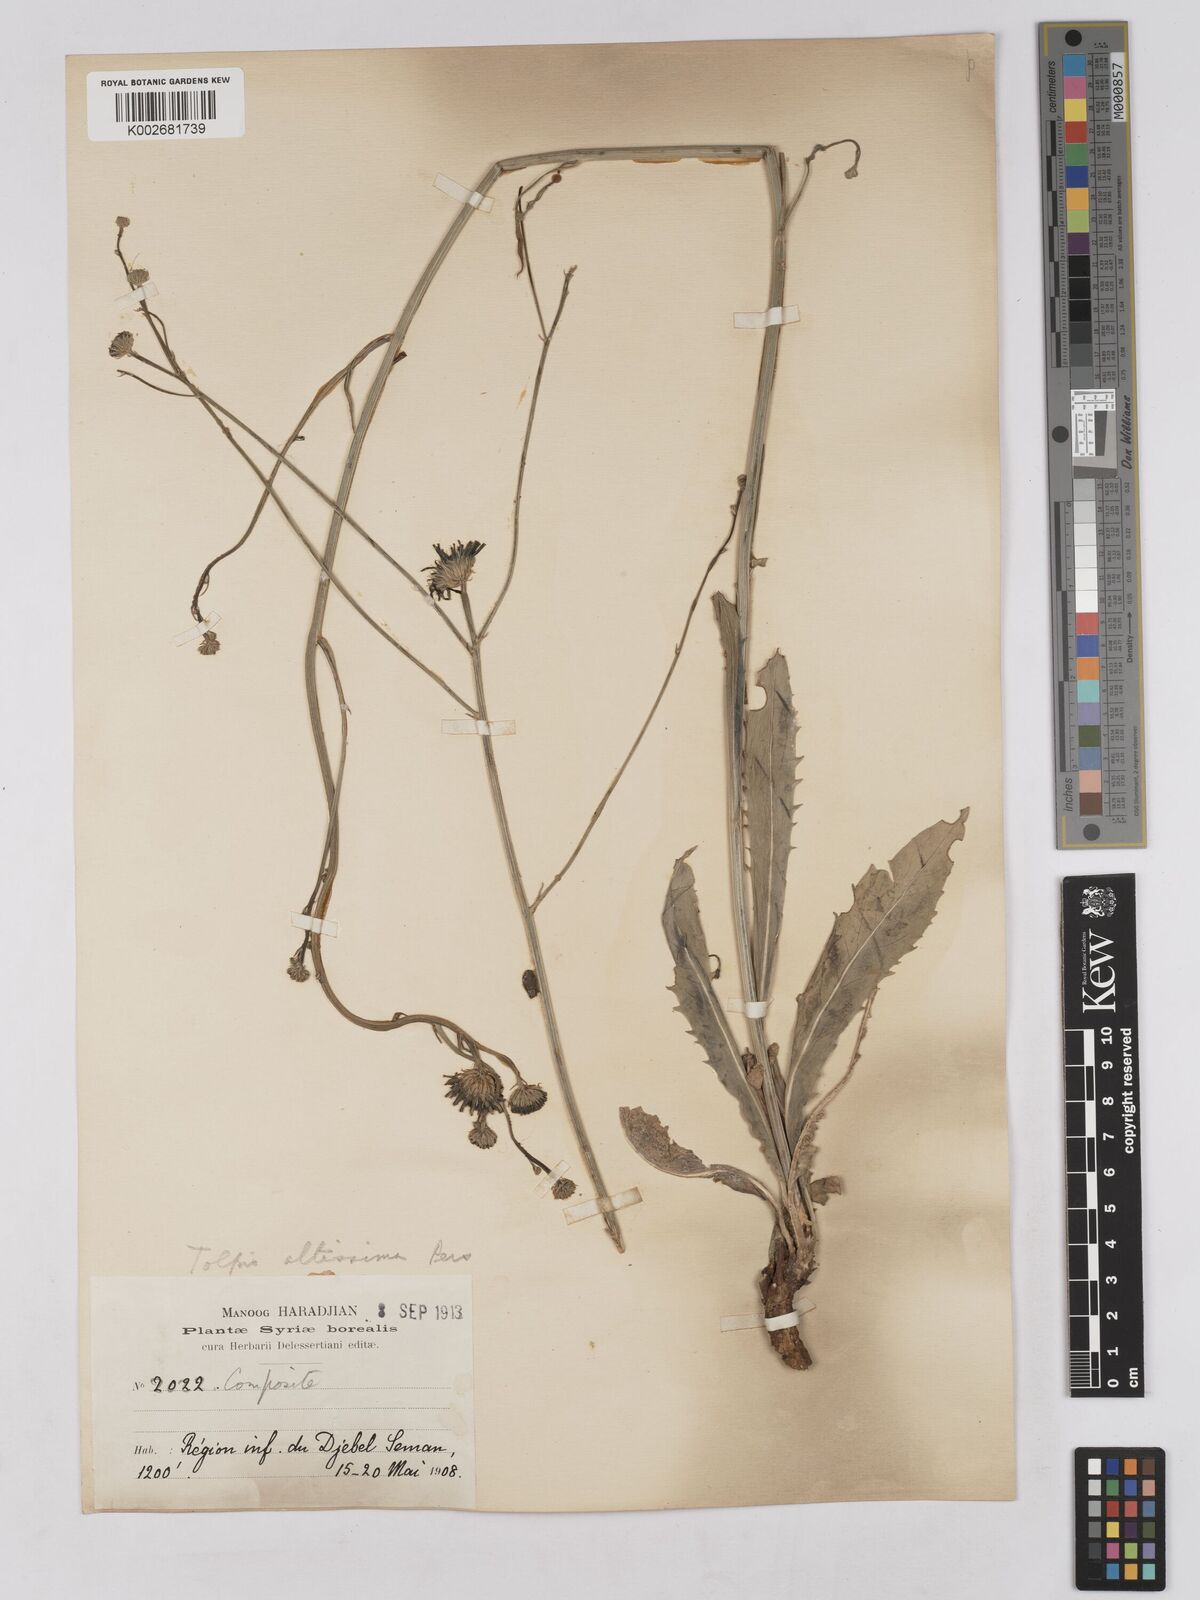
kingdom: Plantae
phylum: Tracheophyta
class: Magnoliopsida
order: Asterales
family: Asteraceae
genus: Tolpis
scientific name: Tolpis virgata
